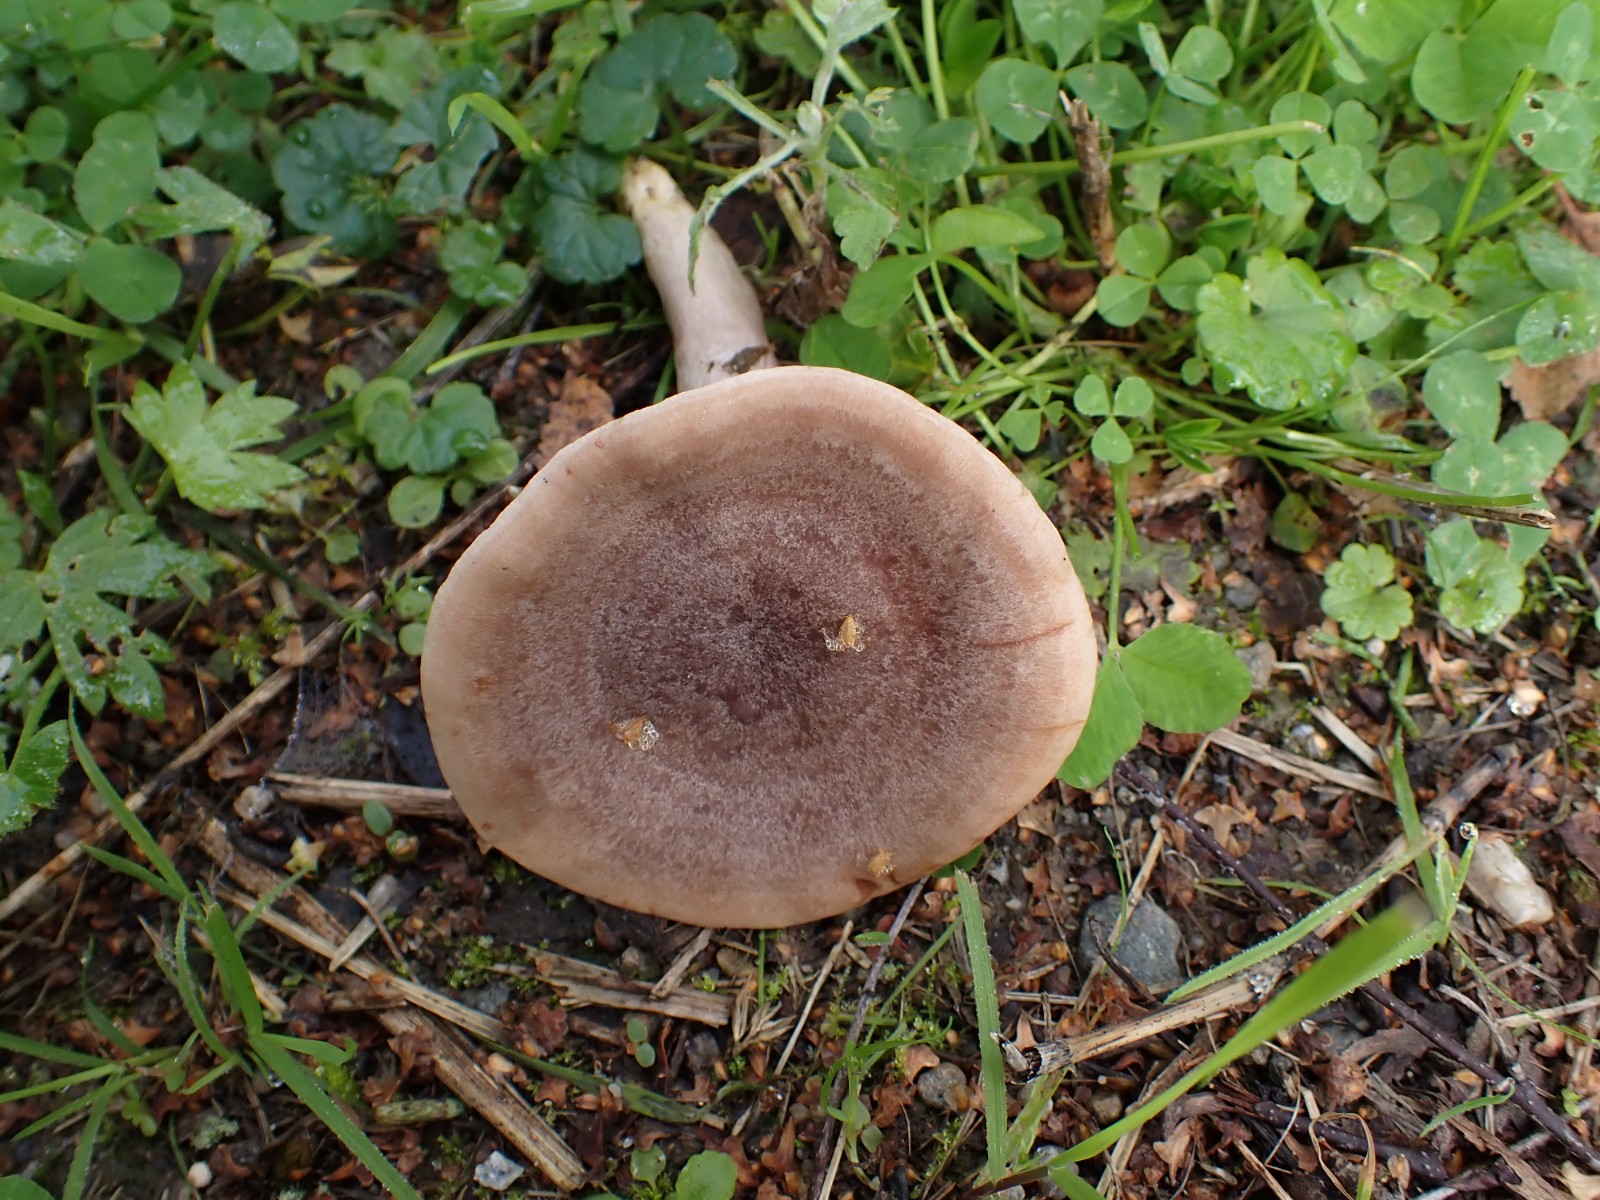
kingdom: Fungi
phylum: Basidiomycota
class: Agaricomycetes
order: Russulales
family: Russulaceae
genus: Lactarius
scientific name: Lactarius vietus
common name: violetgrå mælkehat
